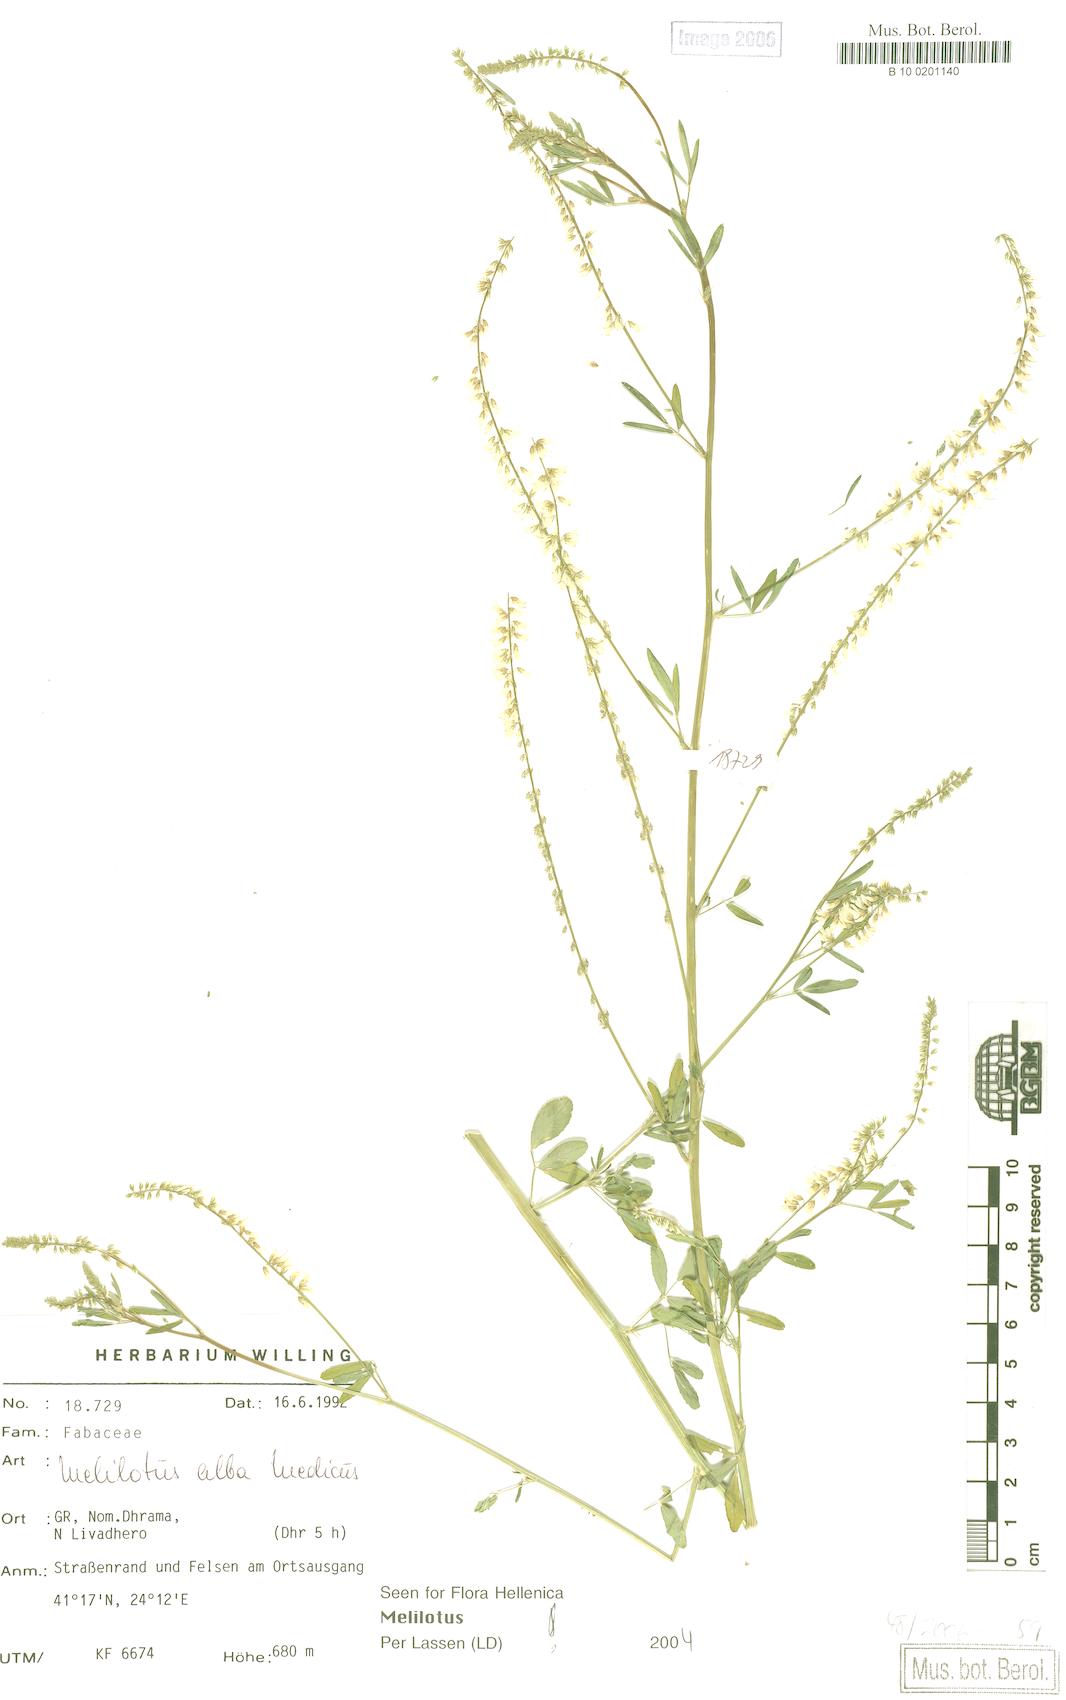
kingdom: Plantae
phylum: Tracheophyta
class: Magnoliopsida
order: Fabales
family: Fabaceae
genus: Melilotus
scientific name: Melilotus albus
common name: White melilot
